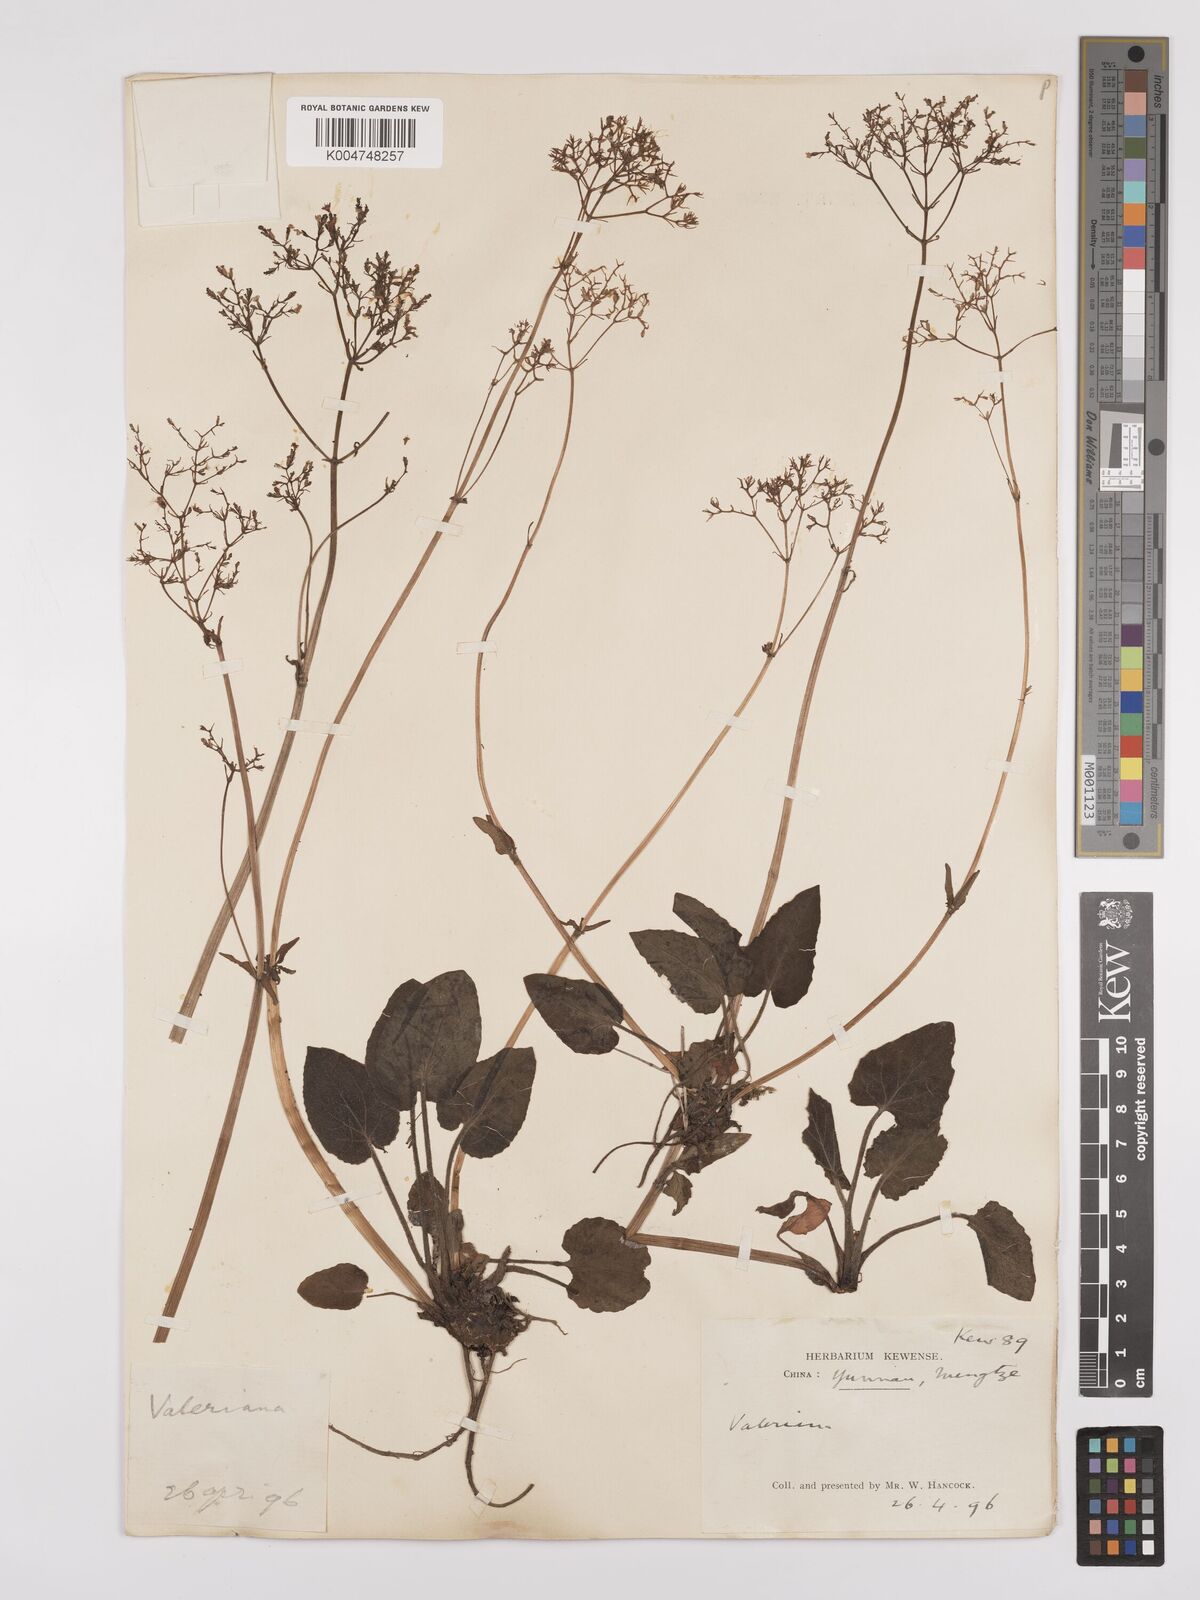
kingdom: Plantae
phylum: Tracheophyta
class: Magnoliopsida
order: Dipsacales
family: Caprifoliaceae
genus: Valeriana
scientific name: Valeriana
